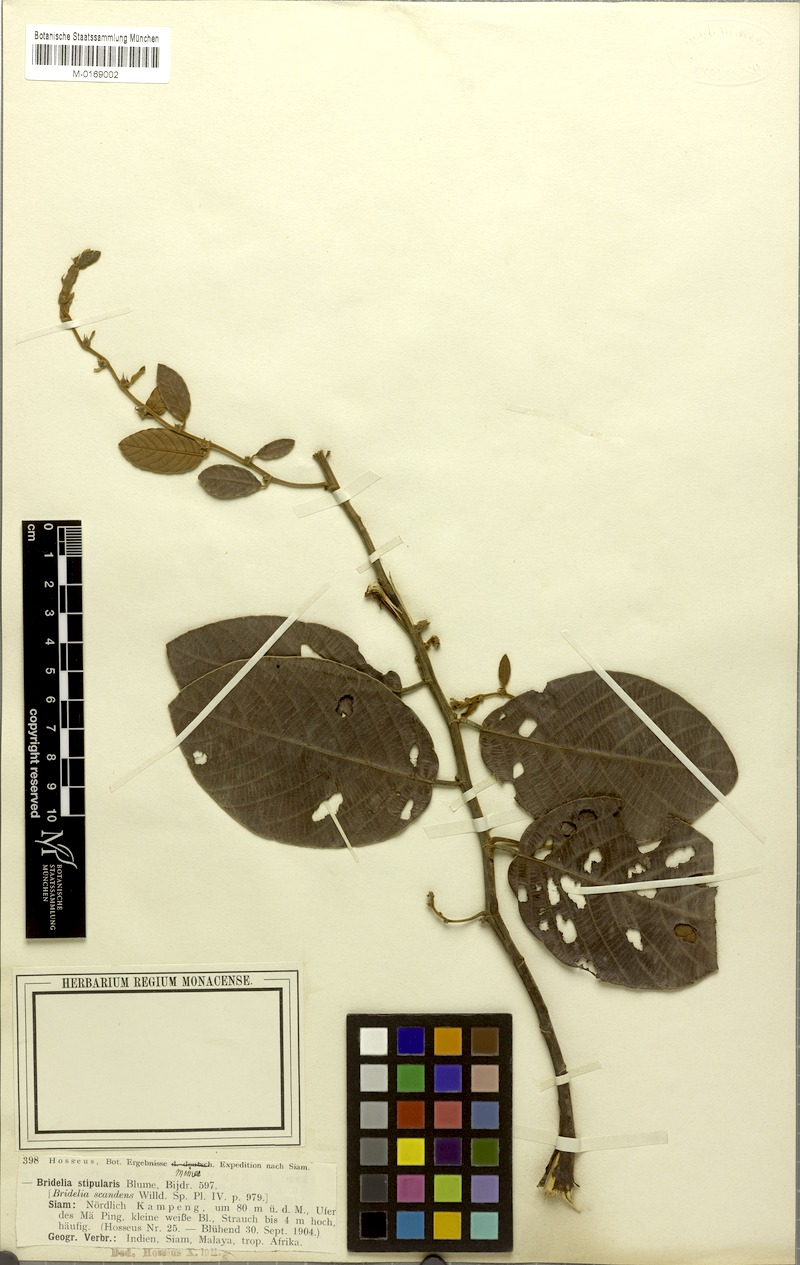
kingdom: Plantae
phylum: Tracheophyta
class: Magnoliopsida
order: Malpighiales
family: Phyllanthaceae
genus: Bridelia
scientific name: Bridelia stipularis
